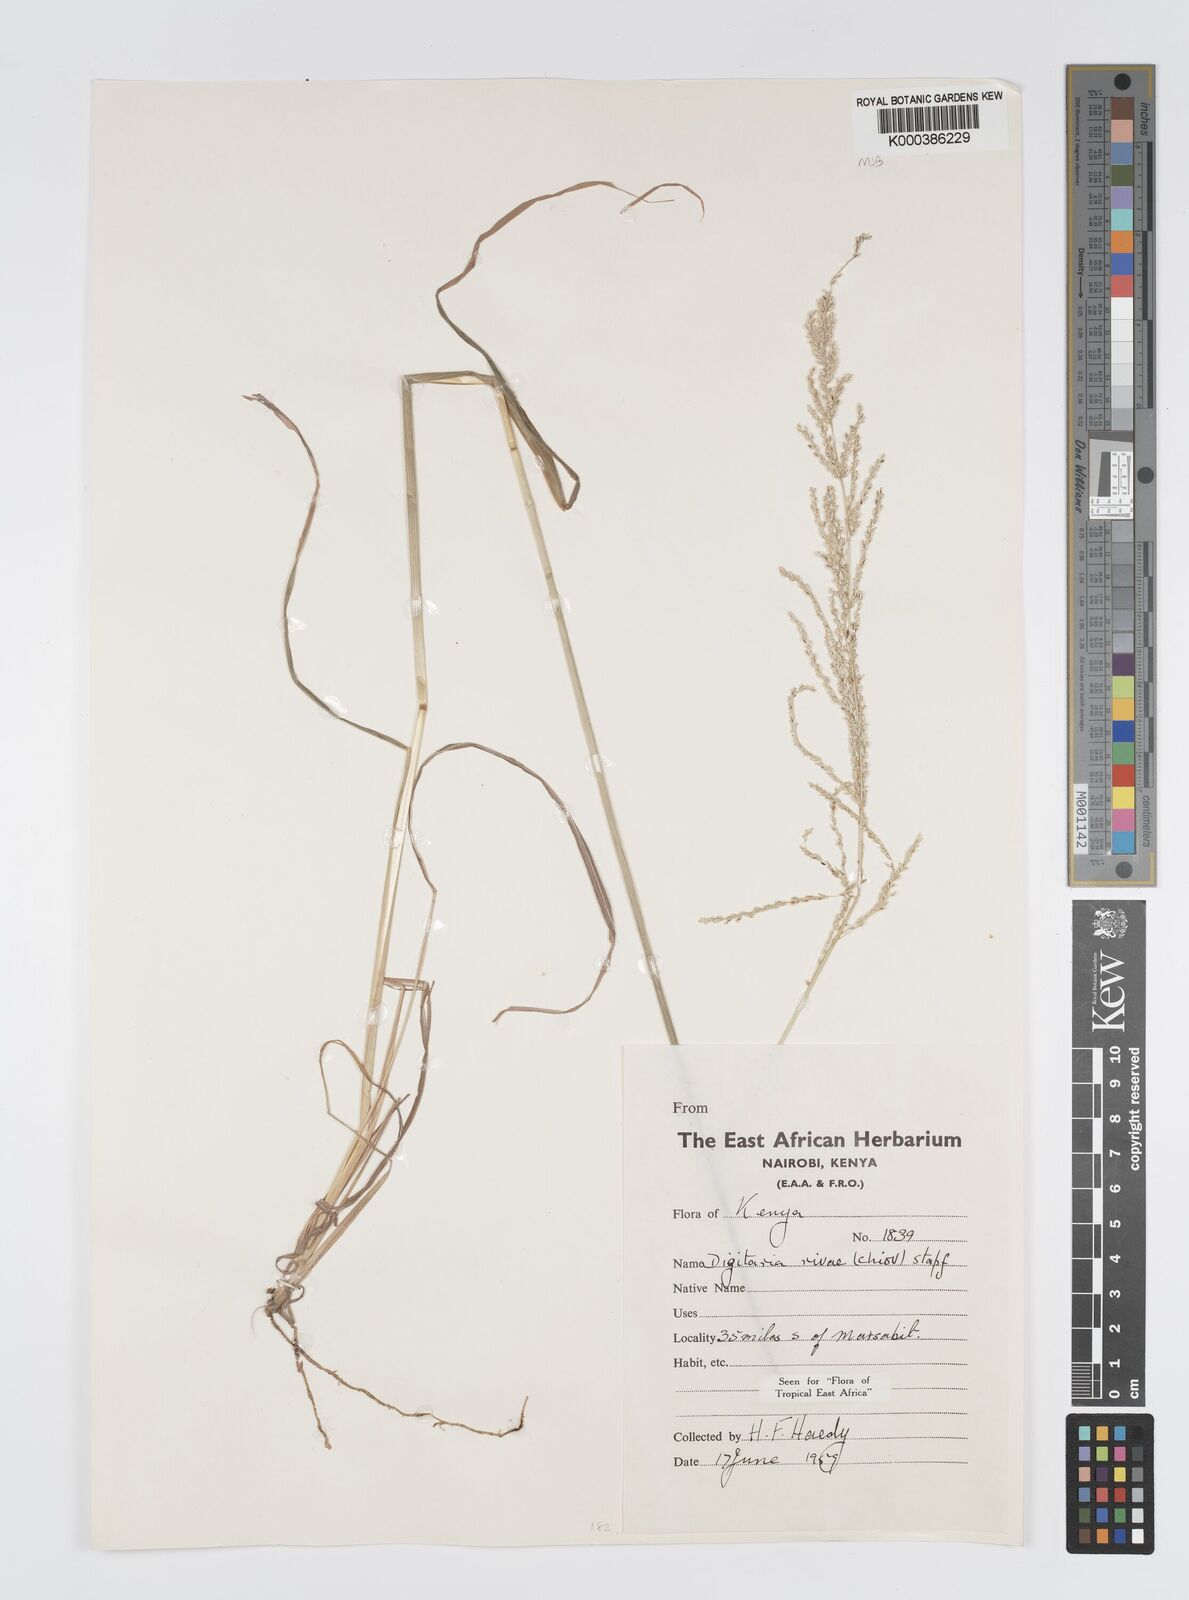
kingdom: Plantae
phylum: Tracheophyta
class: Liliopsida
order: Poales
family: Poaceae
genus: Digitaria
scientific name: Digitaria rivae
